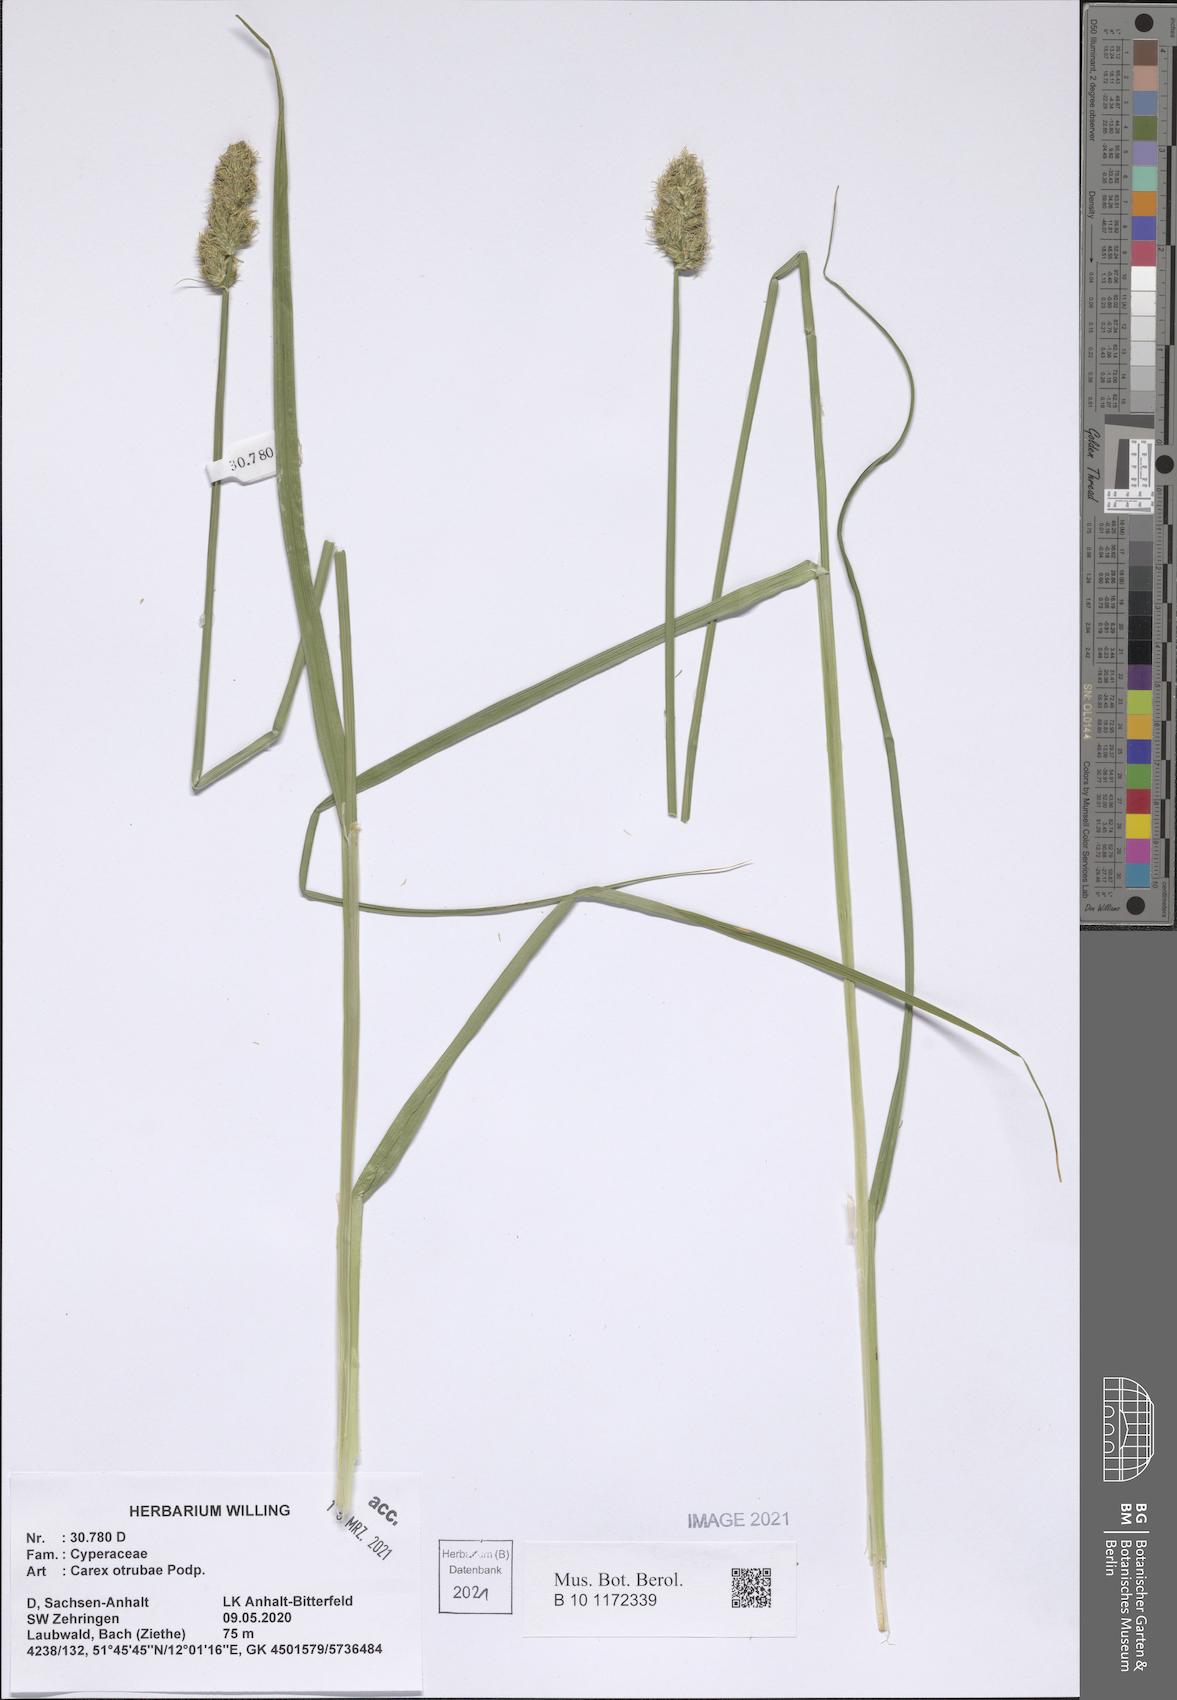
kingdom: Plantae
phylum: Tracheophyta
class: Liliopsida
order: Poales
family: Cyperaceae
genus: Carex
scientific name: Carex otrubae
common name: False fox-sedge
